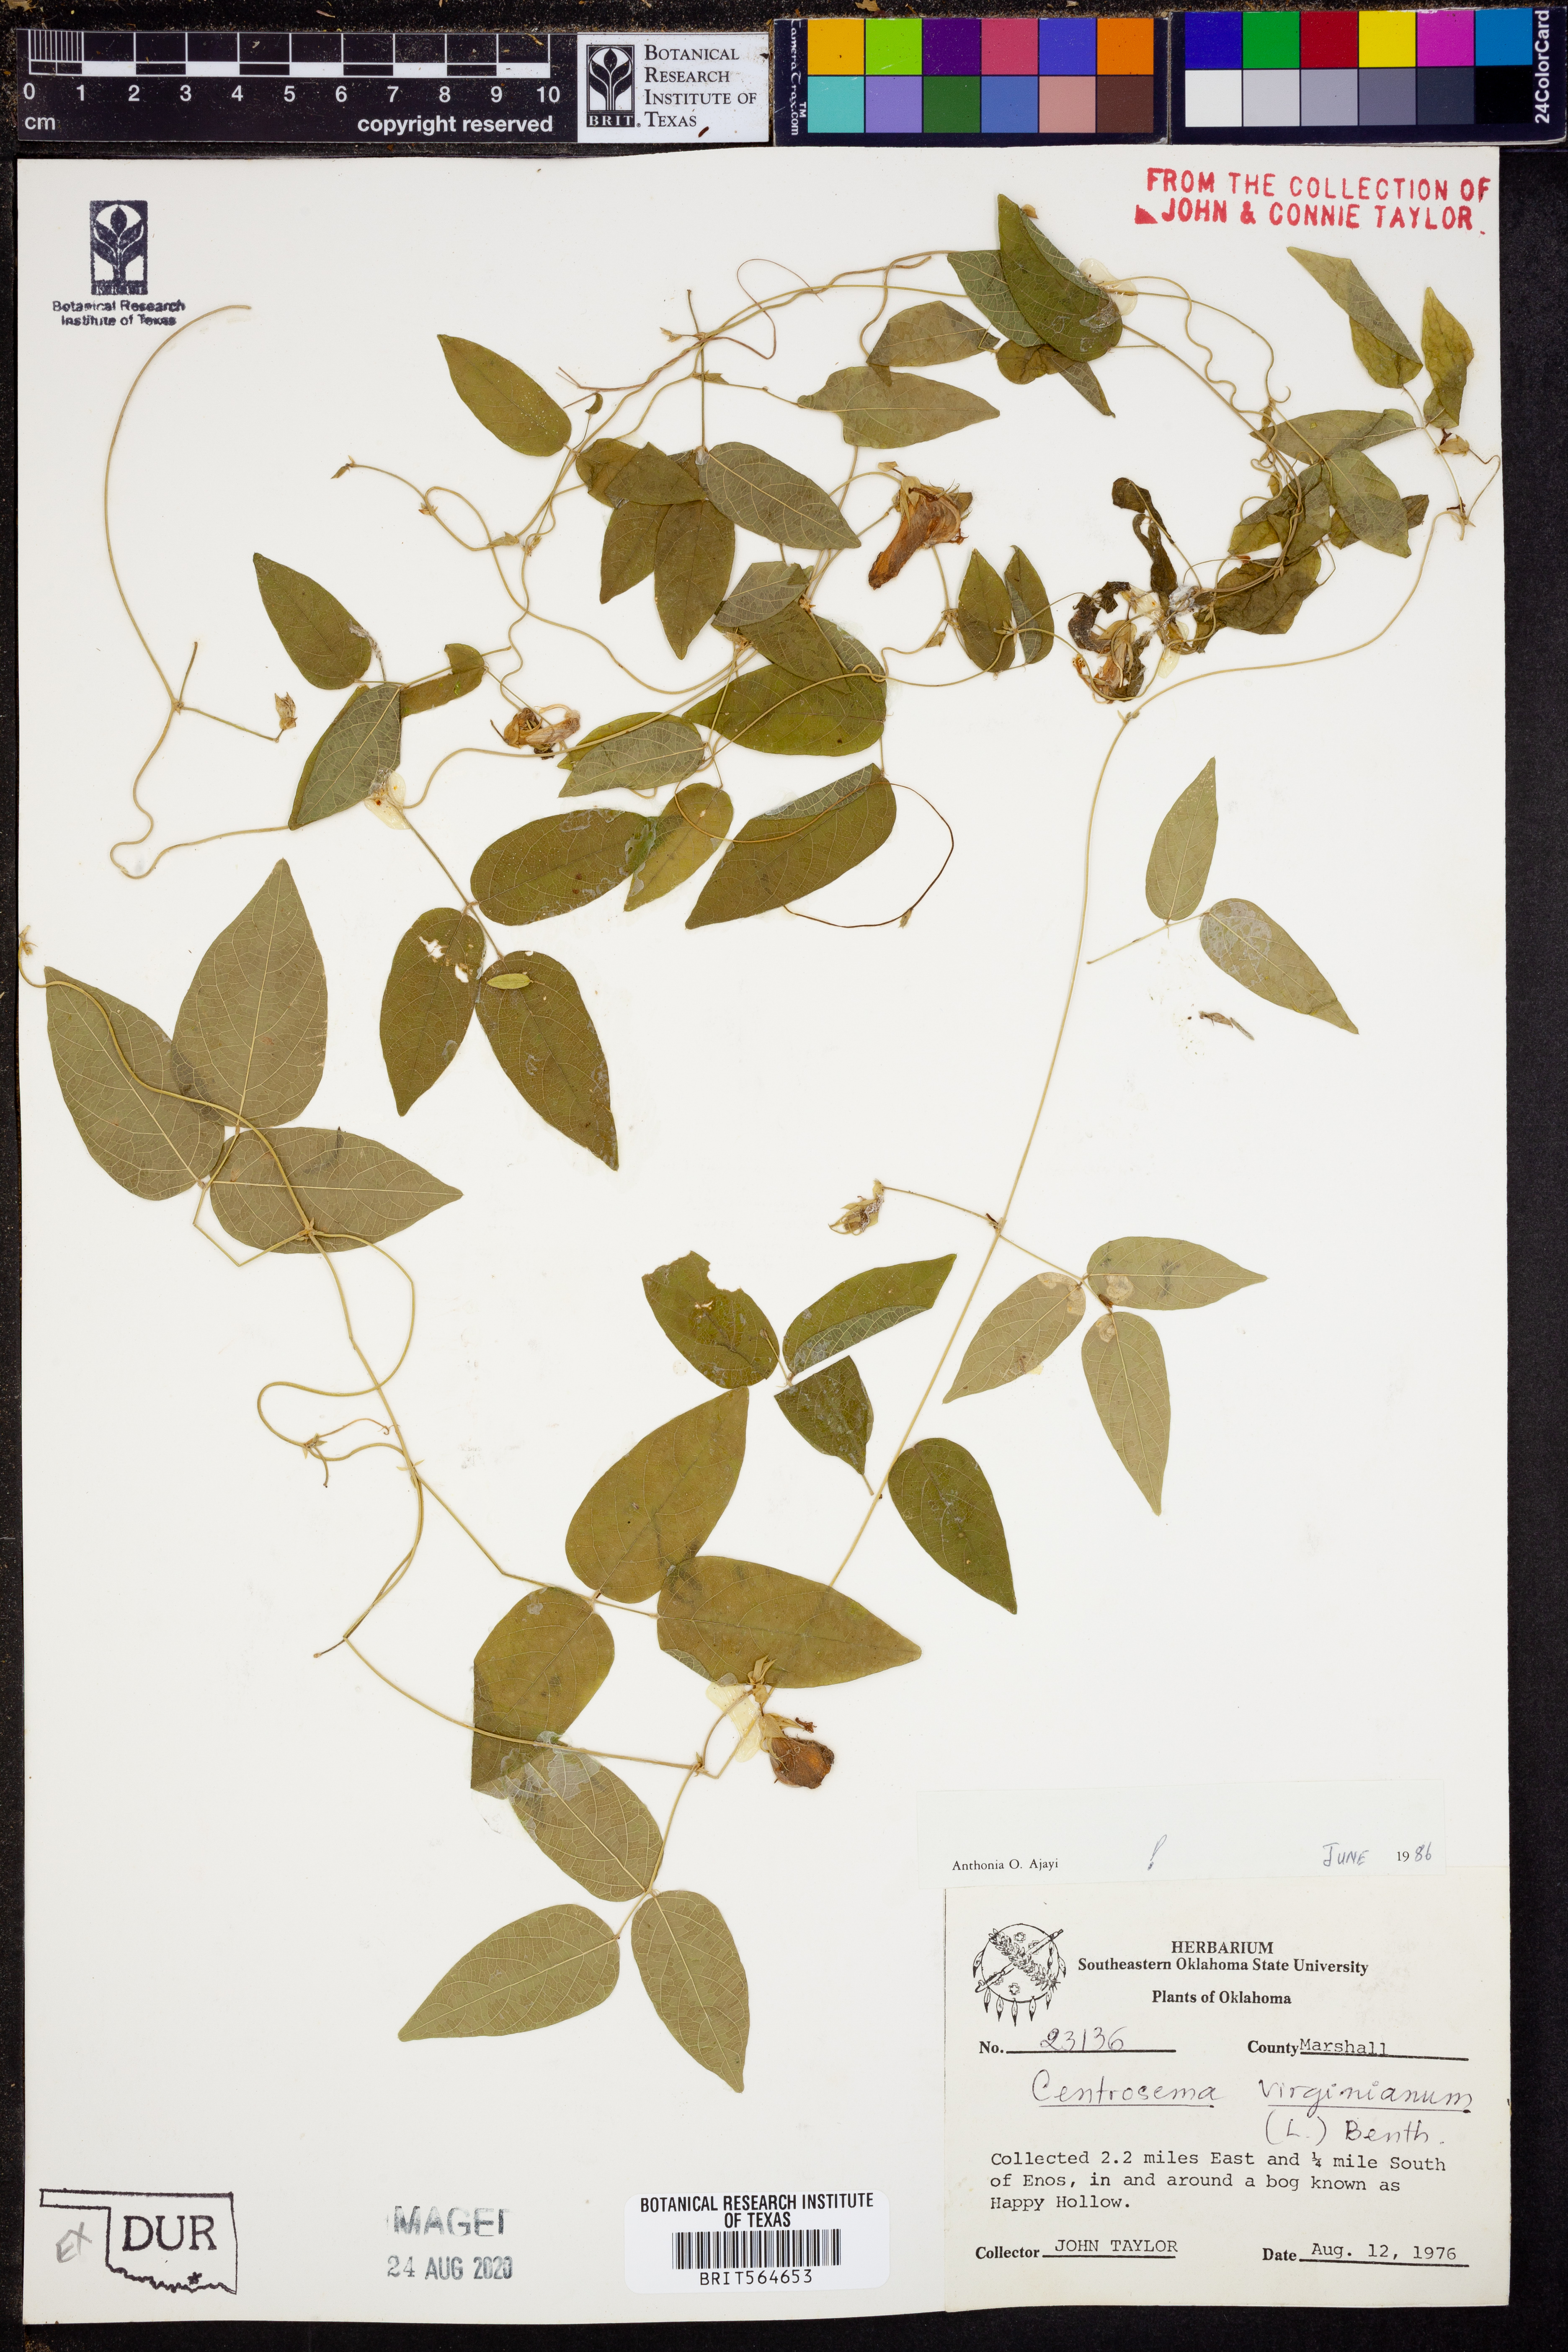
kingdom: Plantae
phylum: Tracheophyta
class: Magnoliopsida
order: Fabales
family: Fabaceae
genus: Centrosema
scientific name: Centrosema virginianum
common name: Butterfly-pea
